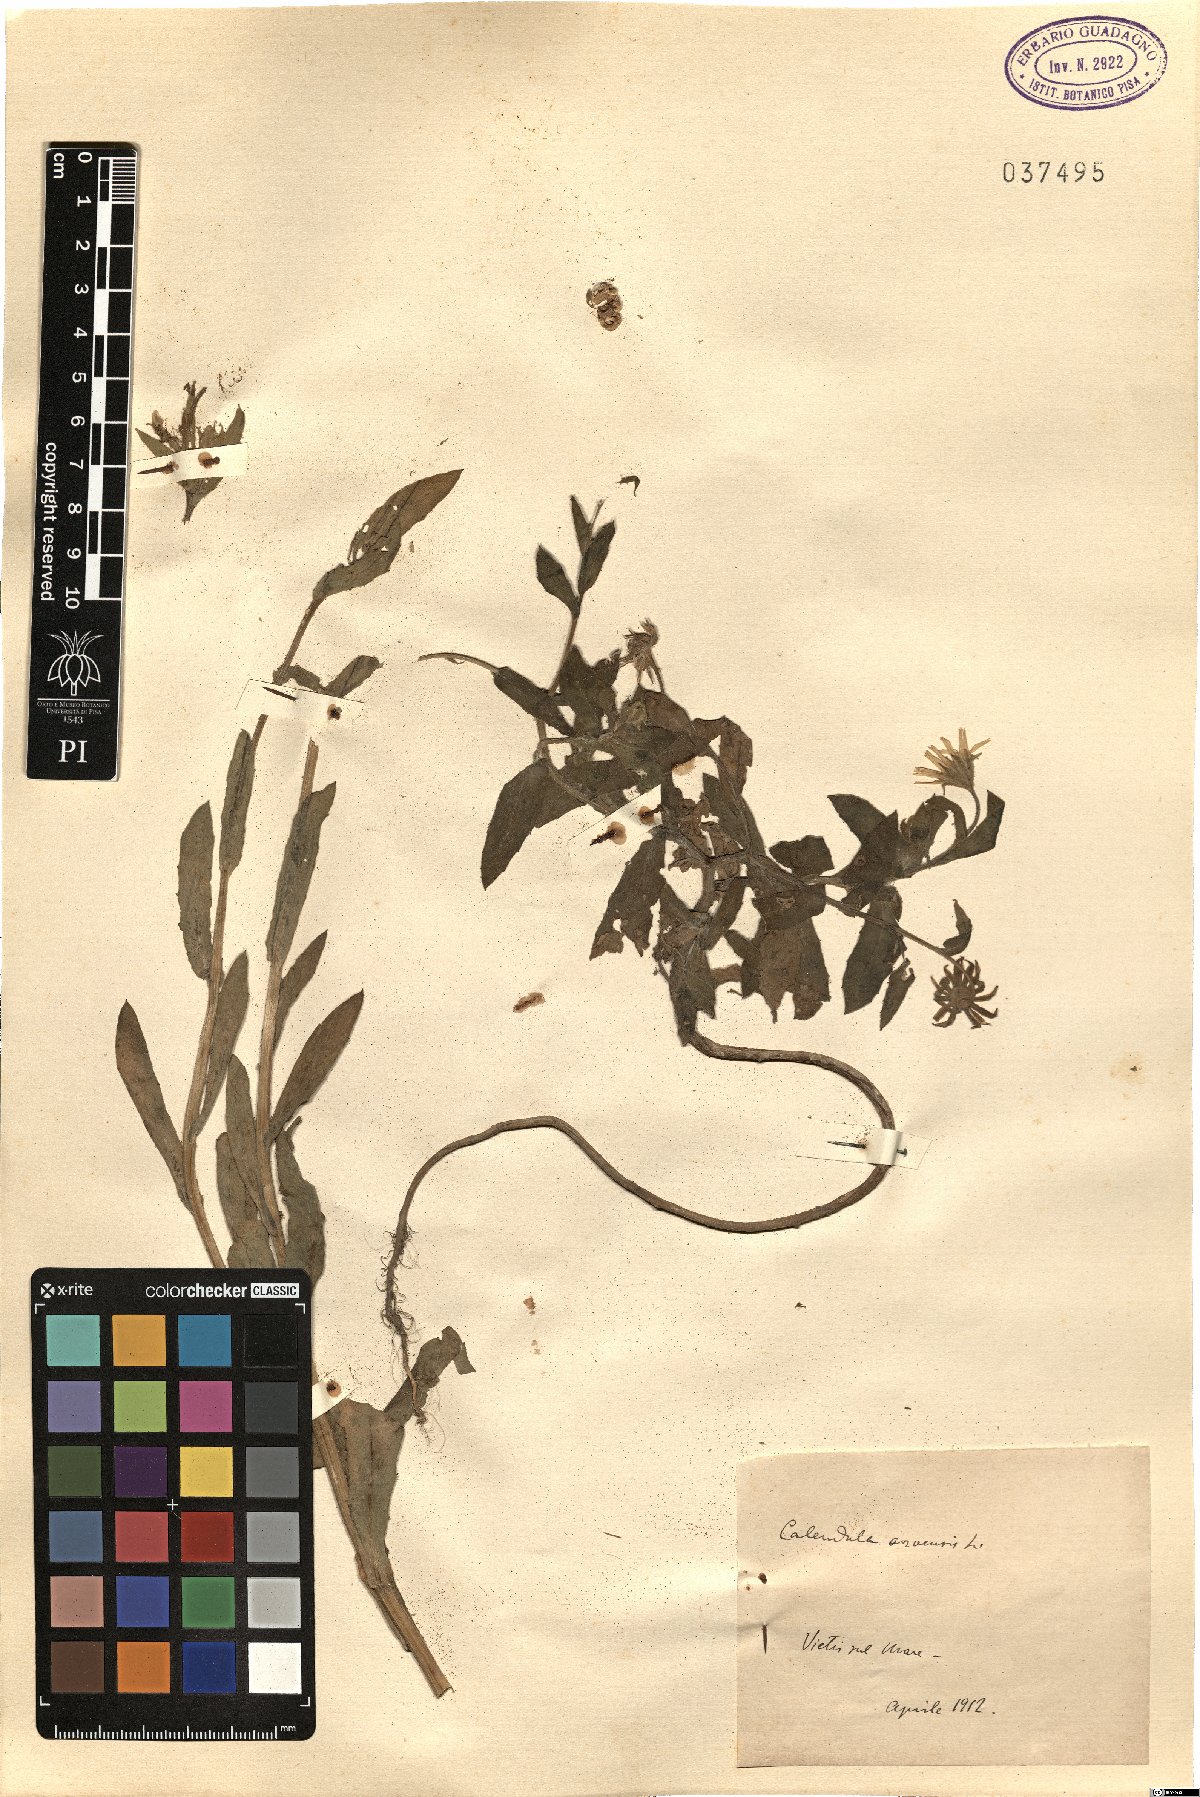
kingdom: Plantae
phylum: Tracheophyta
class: Magnoliopsida
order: Asterales
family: Asteraceae
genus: Calendula
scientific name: Calendula arvensis
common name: Field marigold
